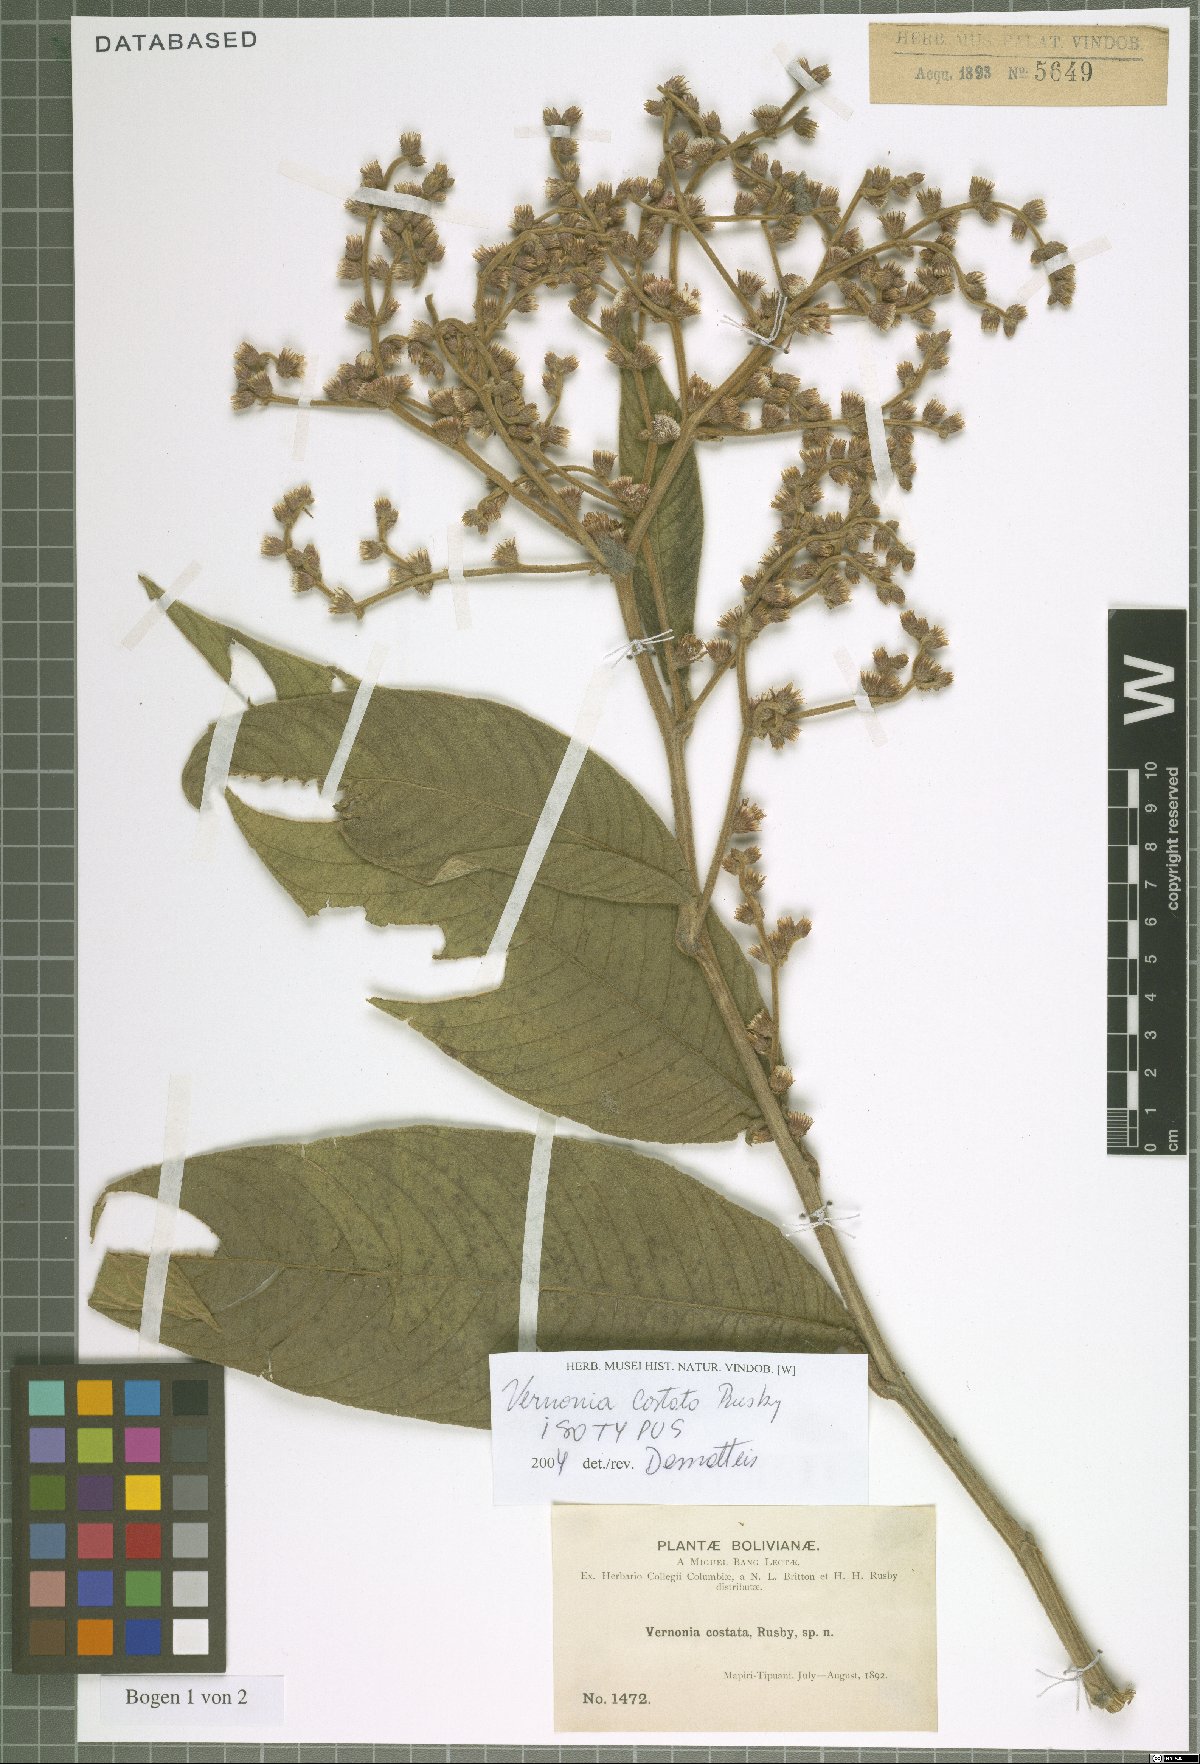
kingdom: Plantae
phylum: Tracheophyta
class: Magnoliopsida
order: Asterales
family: Asteraceae
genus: Lepidaploa
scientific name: Lepidaploa costata
